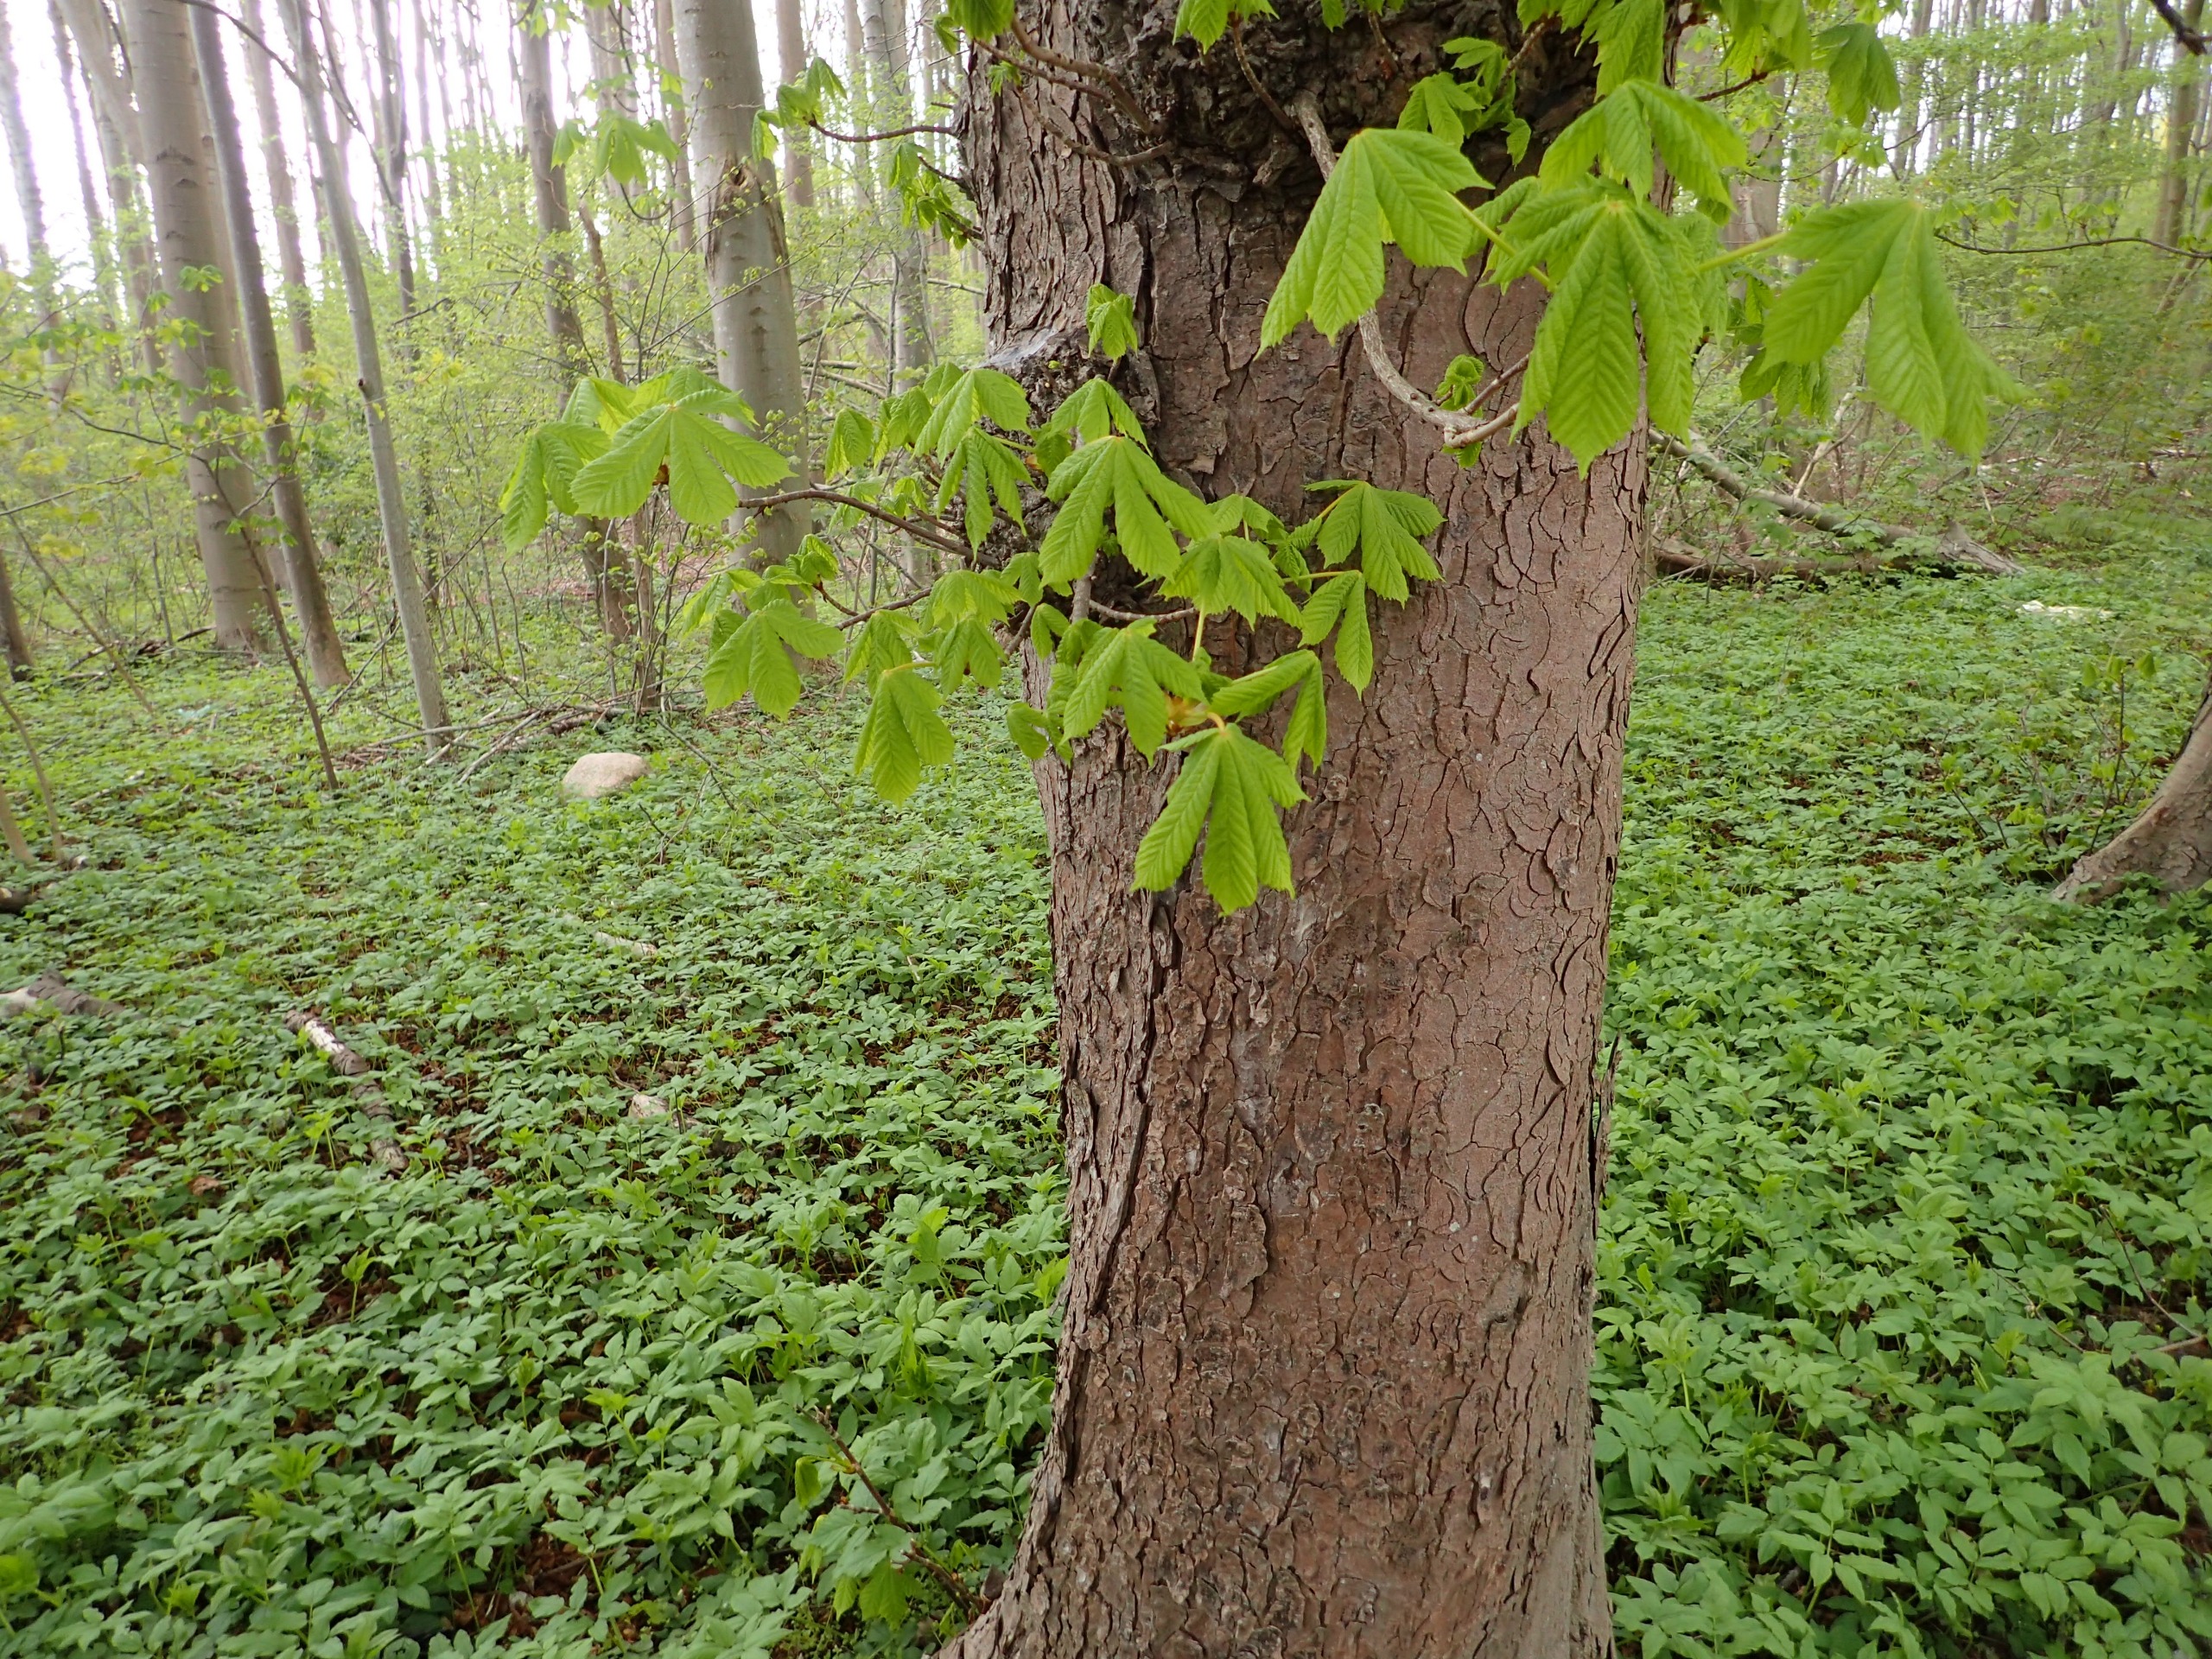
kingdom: Plantae
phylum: Tracheophyta
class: Magnoliopsida
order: Sapindales
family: Sapindaceae
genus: Aesculus
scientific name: Aesculus hippocastanum
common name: Hestekastanie
